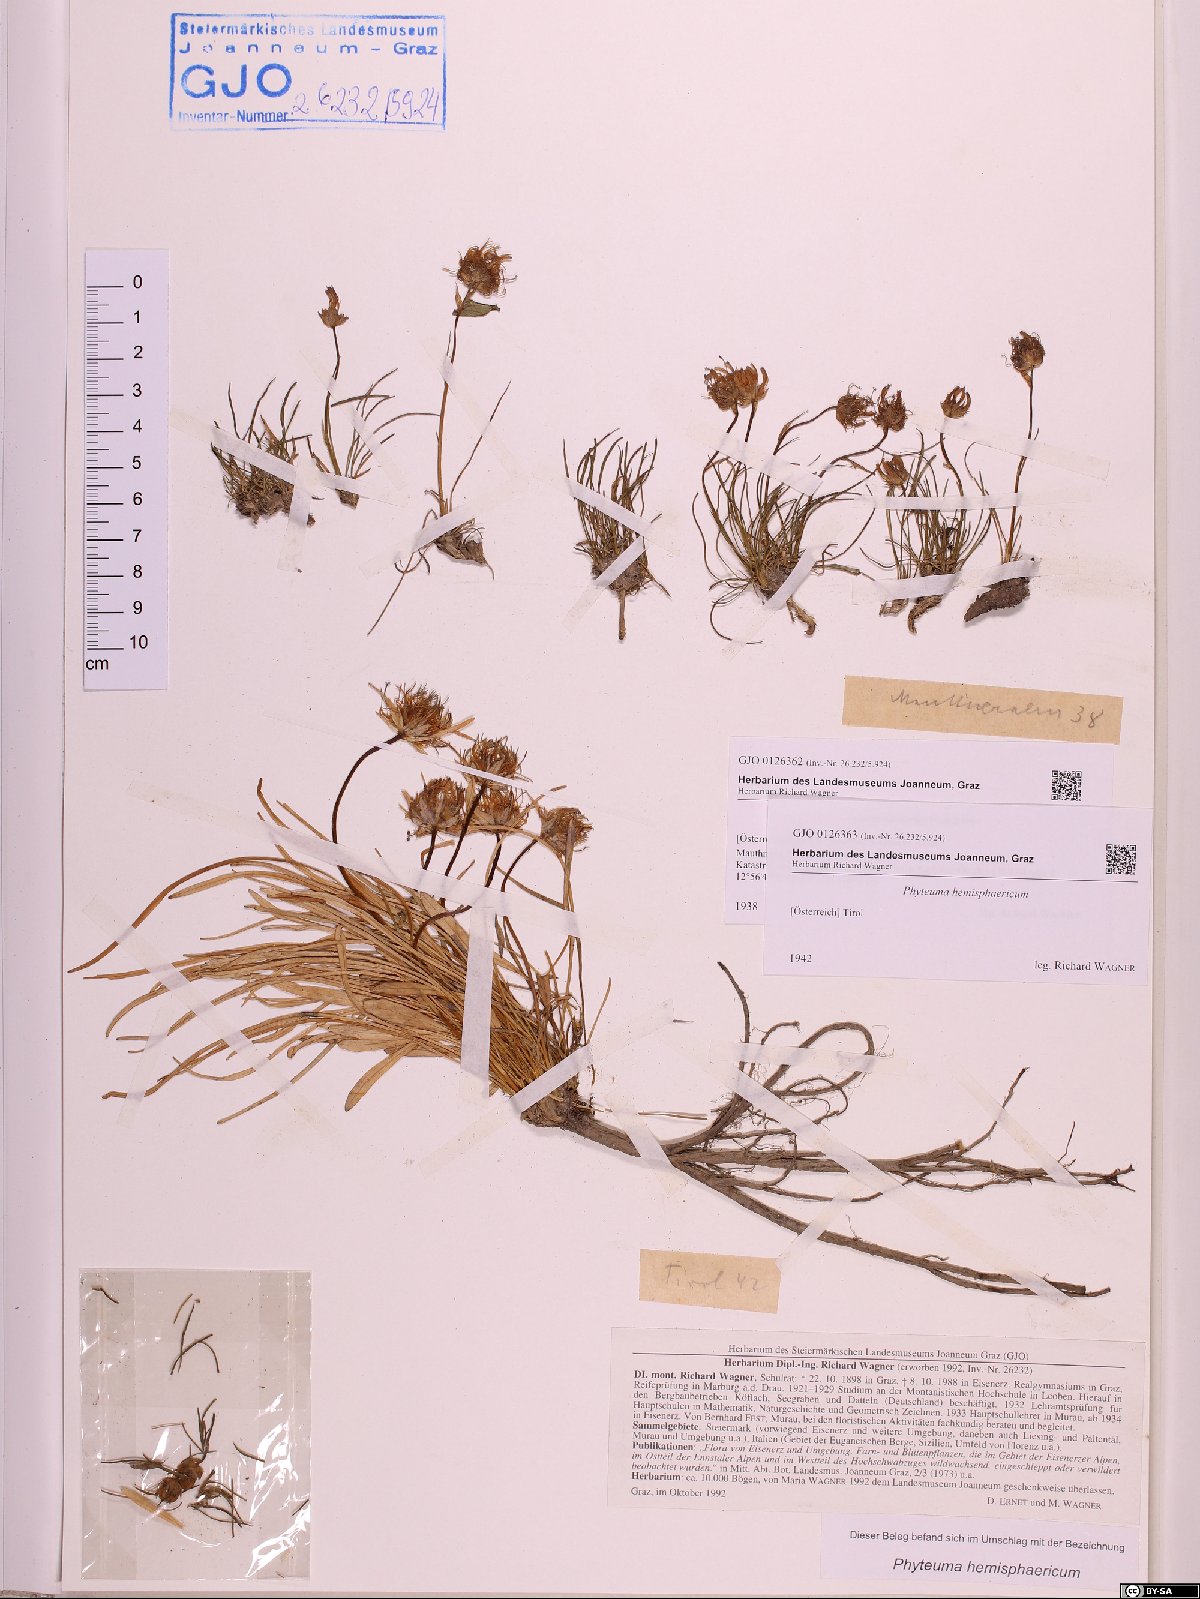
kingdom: Plantae
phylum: Tracheophyta
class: Magnoliopsida
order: Asterales
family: Campanulaceae
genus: Phyteuma
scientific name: Phyteuma hemisphaericum
